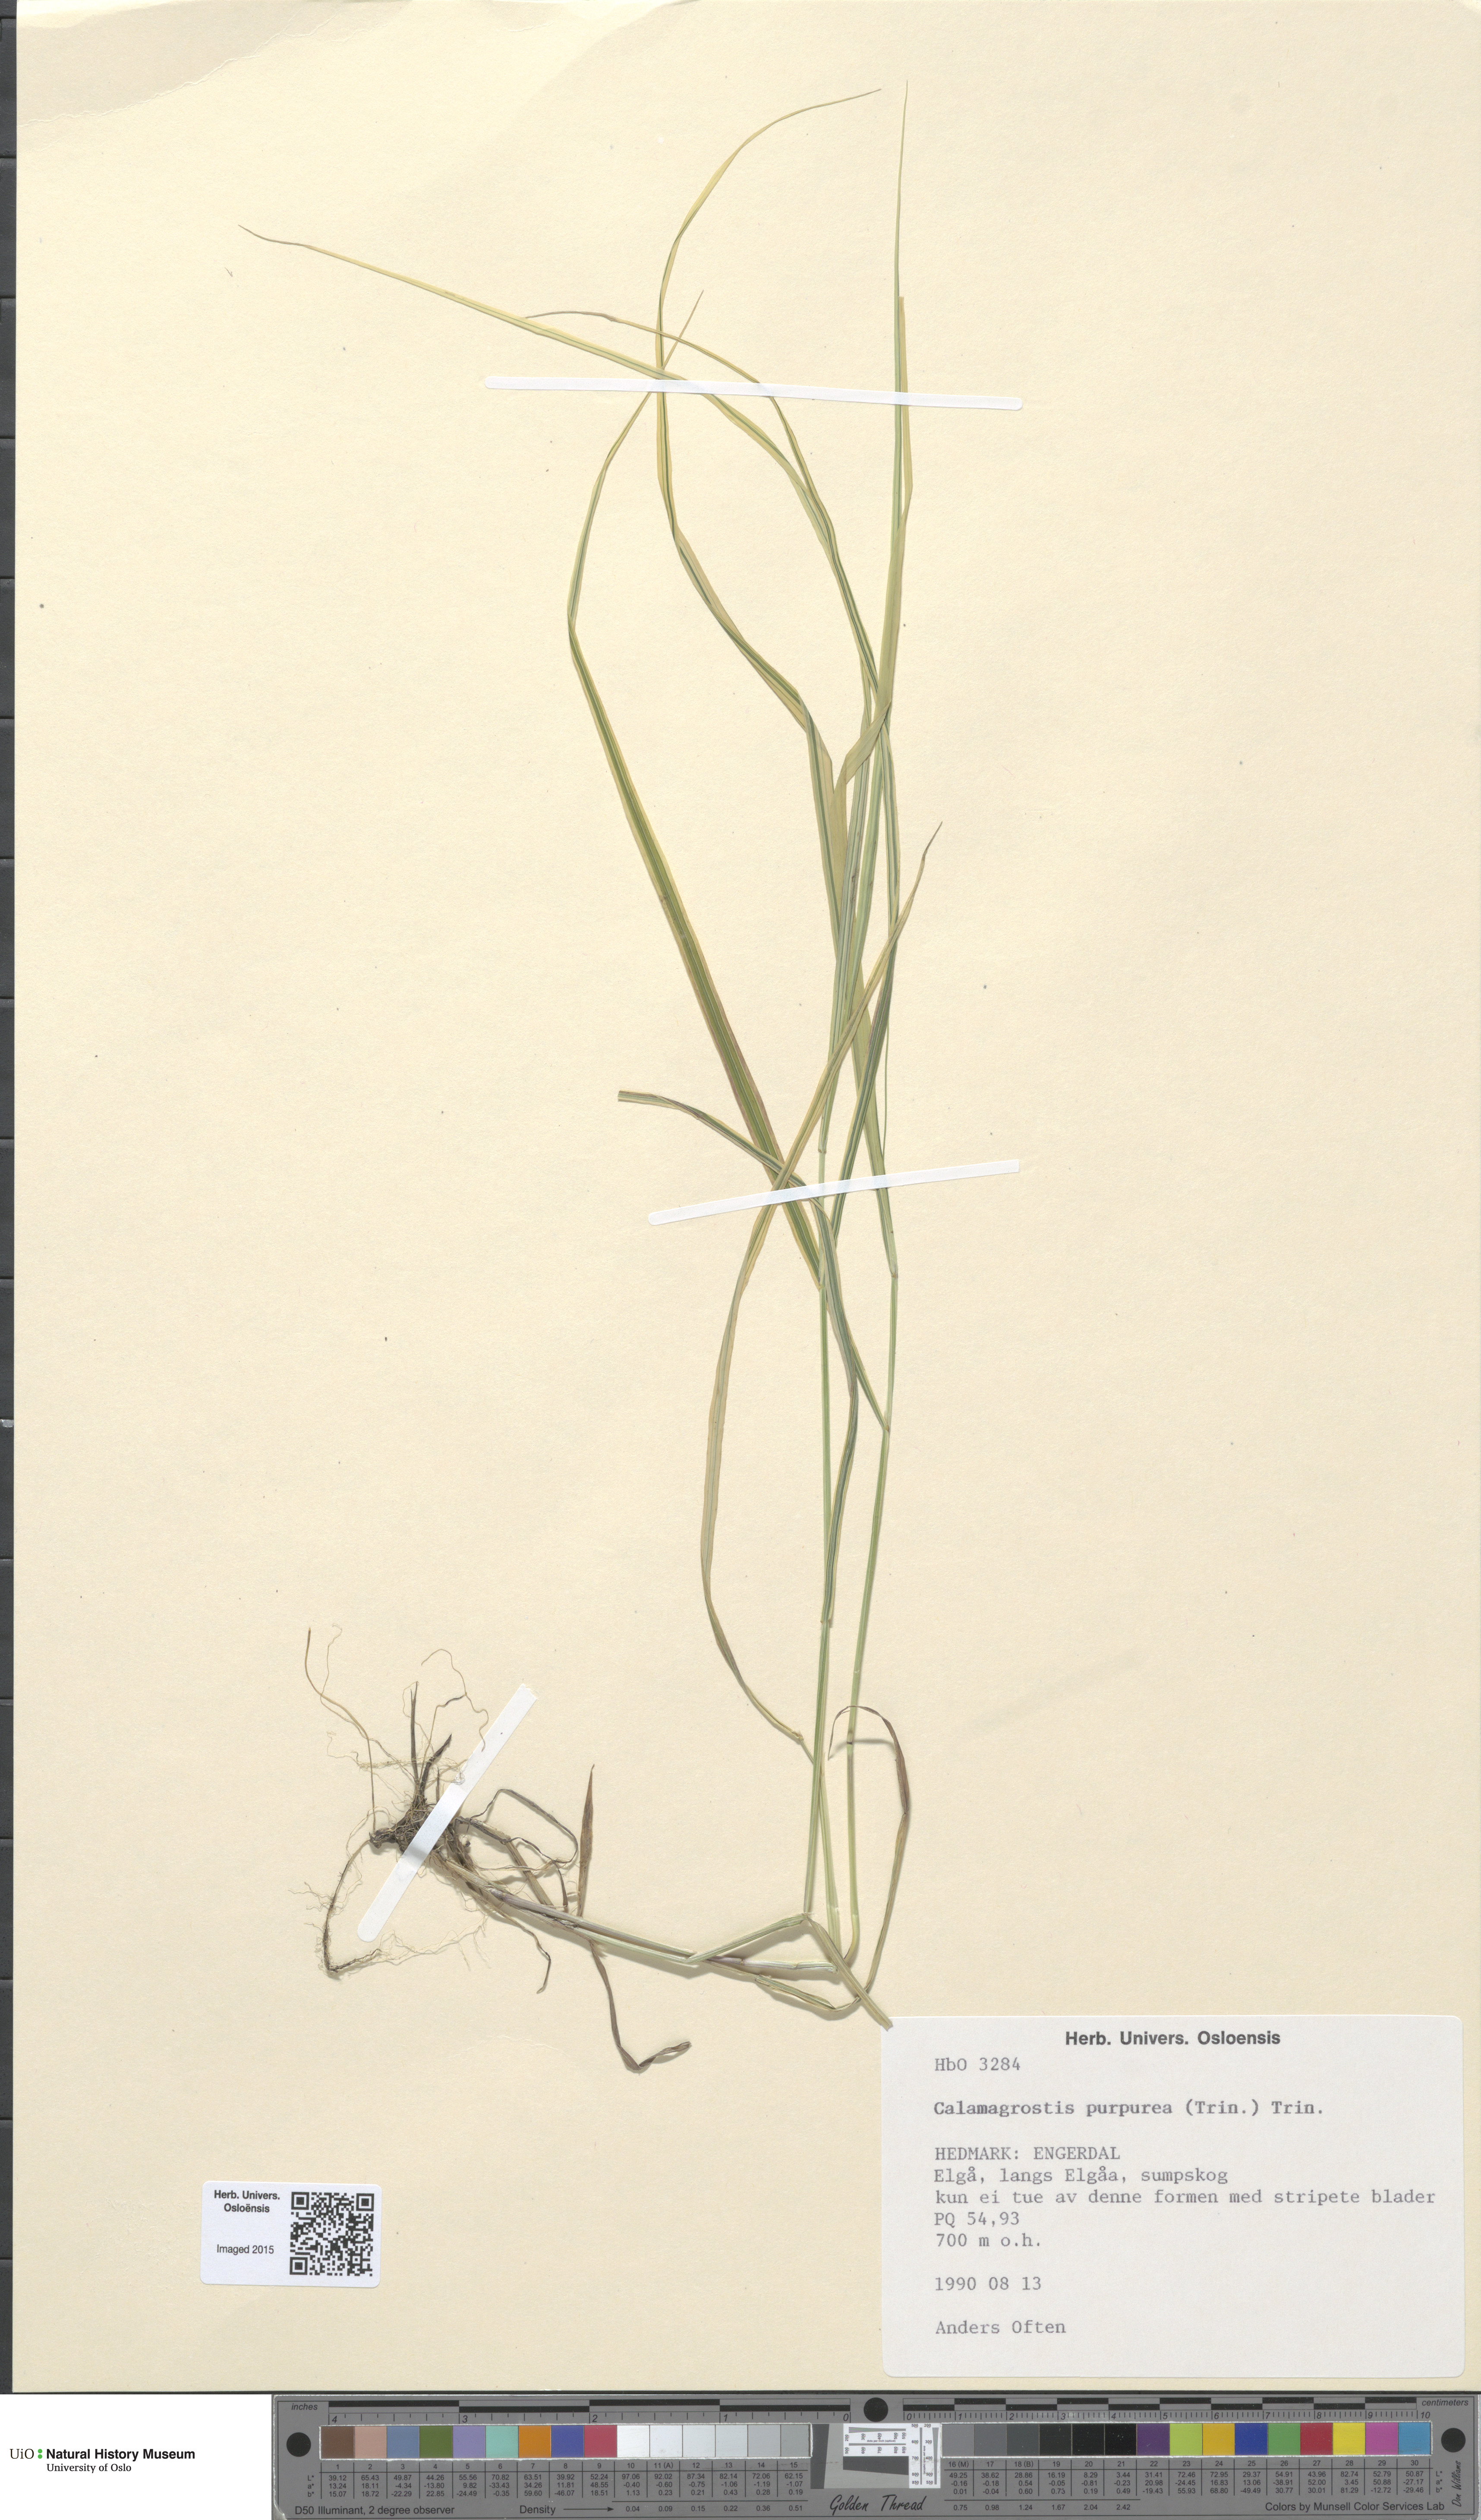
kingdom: Plantae
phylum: Tracheophyta
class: Liliopsida
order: Poales
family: Poaceae
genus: Calamagrostis
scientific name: Calamagrostis purpurea
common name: Scandinavian small-reed
